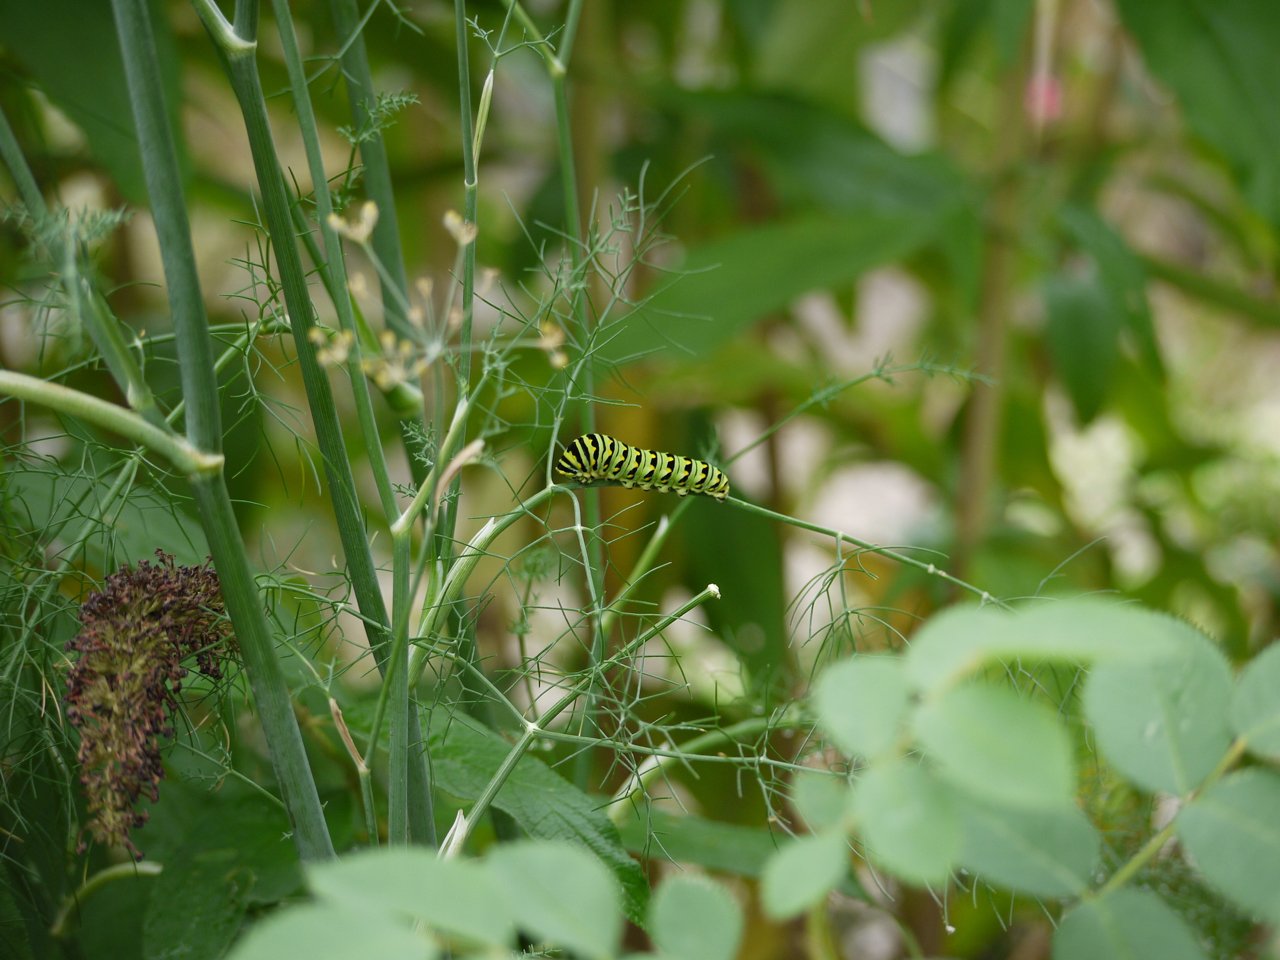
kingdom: Animalia
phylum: Arthropoda
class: Insecta
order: Lepidoptera
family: Papilionidae
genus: Papilio
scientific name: Papilio polyxenes
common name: Black Swallowtail
